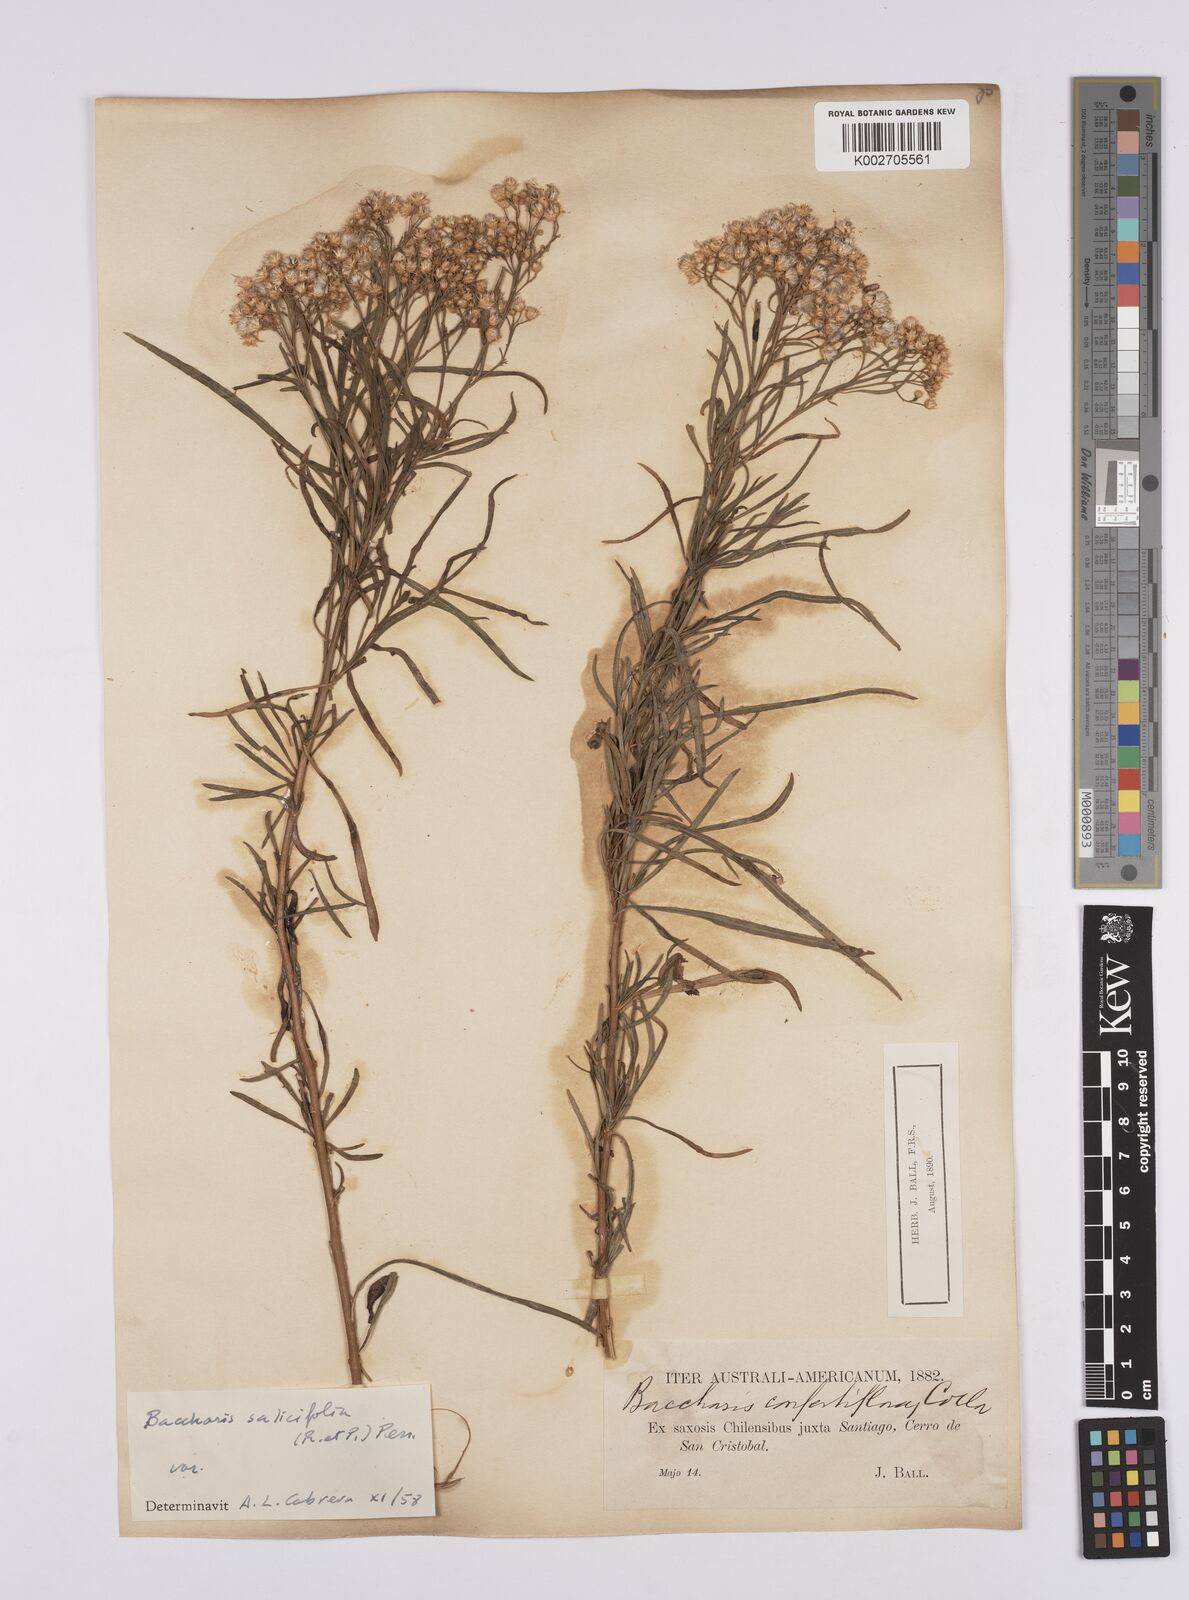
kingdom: Plantae
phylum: Tracheophyta
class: Magnoliopsida
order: Asterales
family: Asteraceae
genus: Baccharis
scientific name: Baccharis salicifolia
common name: Sticky baccharis
